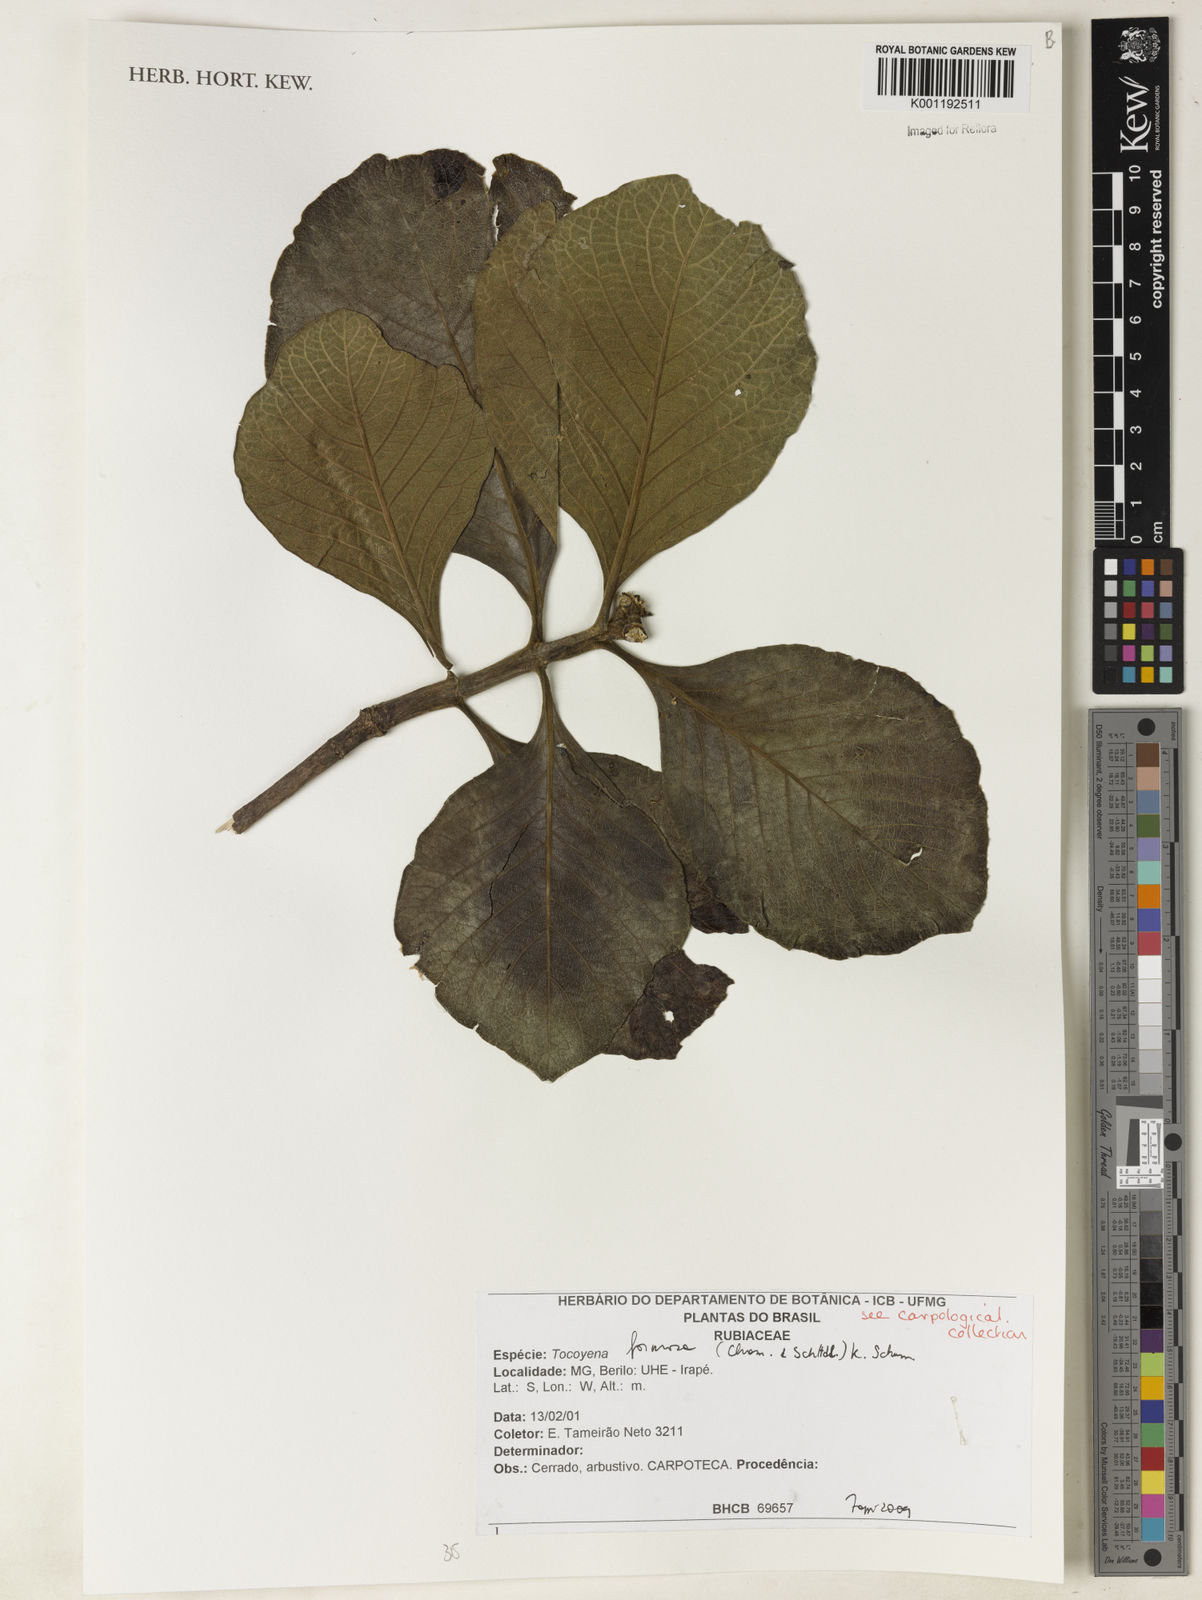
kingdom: Plantae
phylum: Tracheophyta
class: Magnoliopsida
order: Gentianales
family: Rubiaceae
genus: Tocoyena
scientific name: Tocoyena formosa
